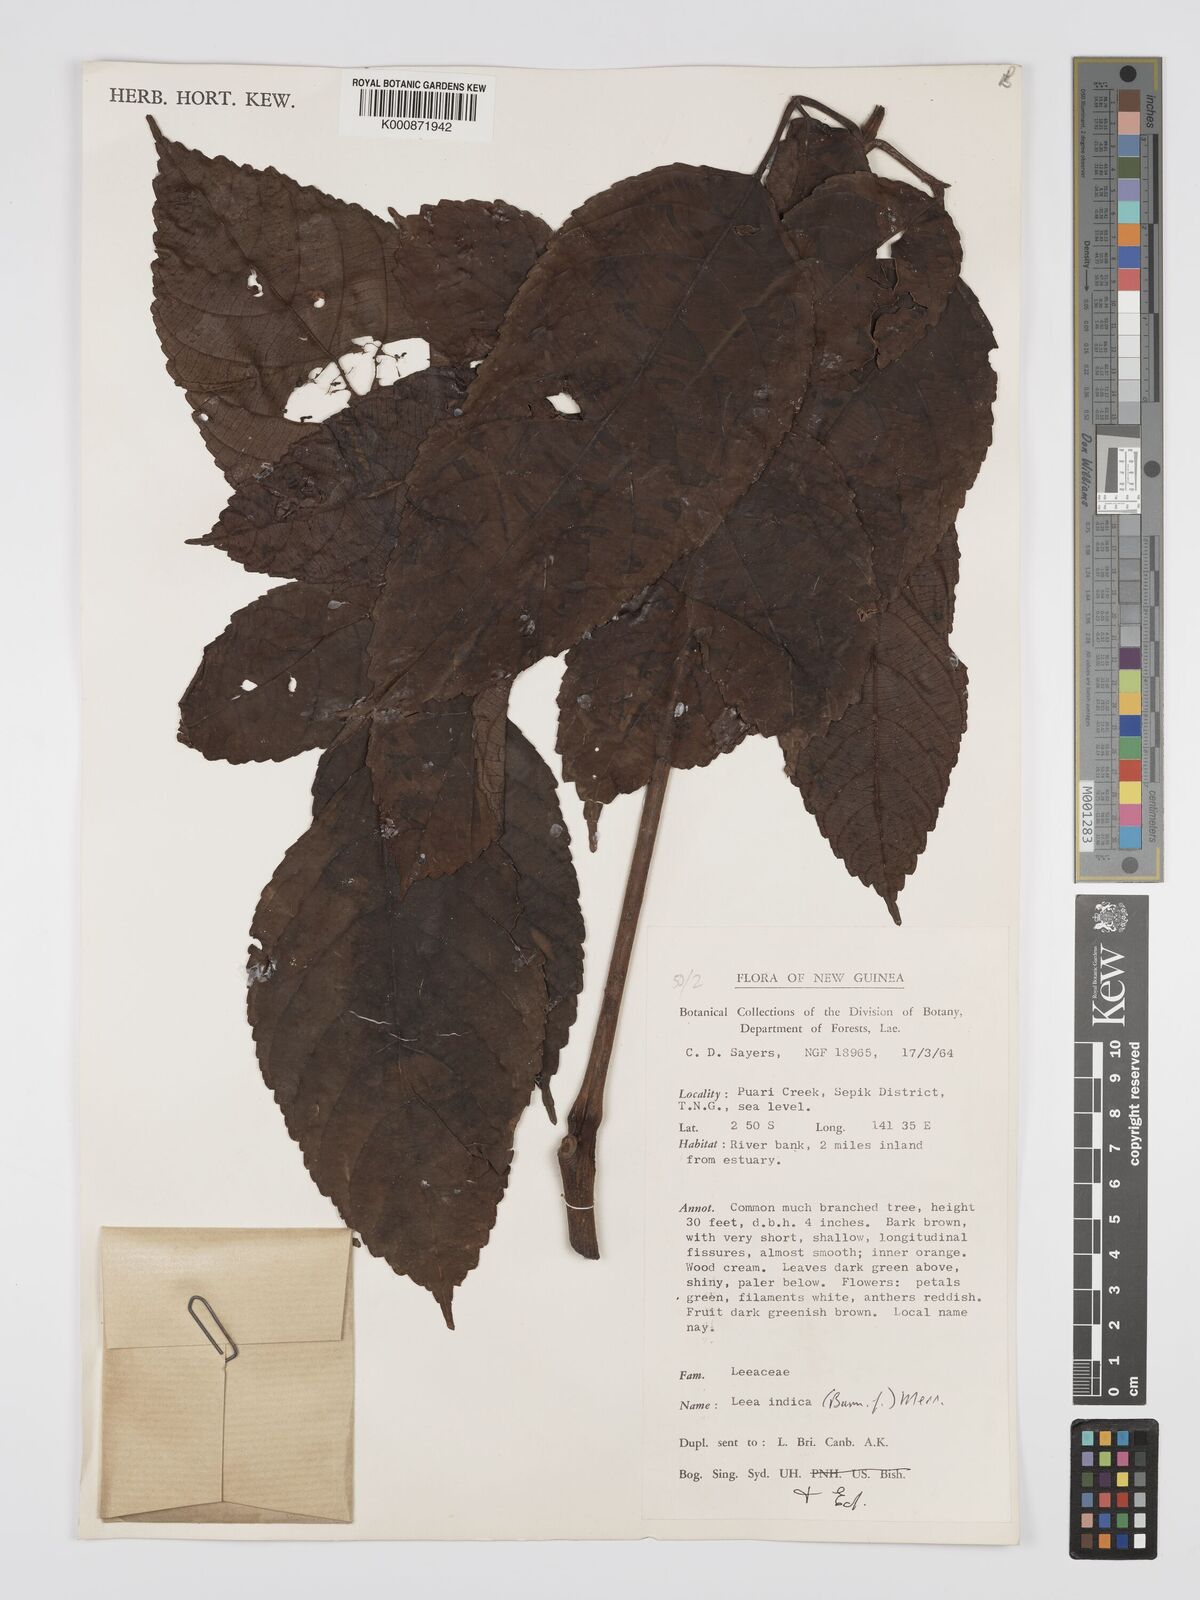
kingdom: Plantae
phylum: Tracheophyta
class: Magnoliopsida
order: Vitales
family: Vitaceae
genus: Leea
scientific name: Leea indica
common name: Bandicoot-berry
